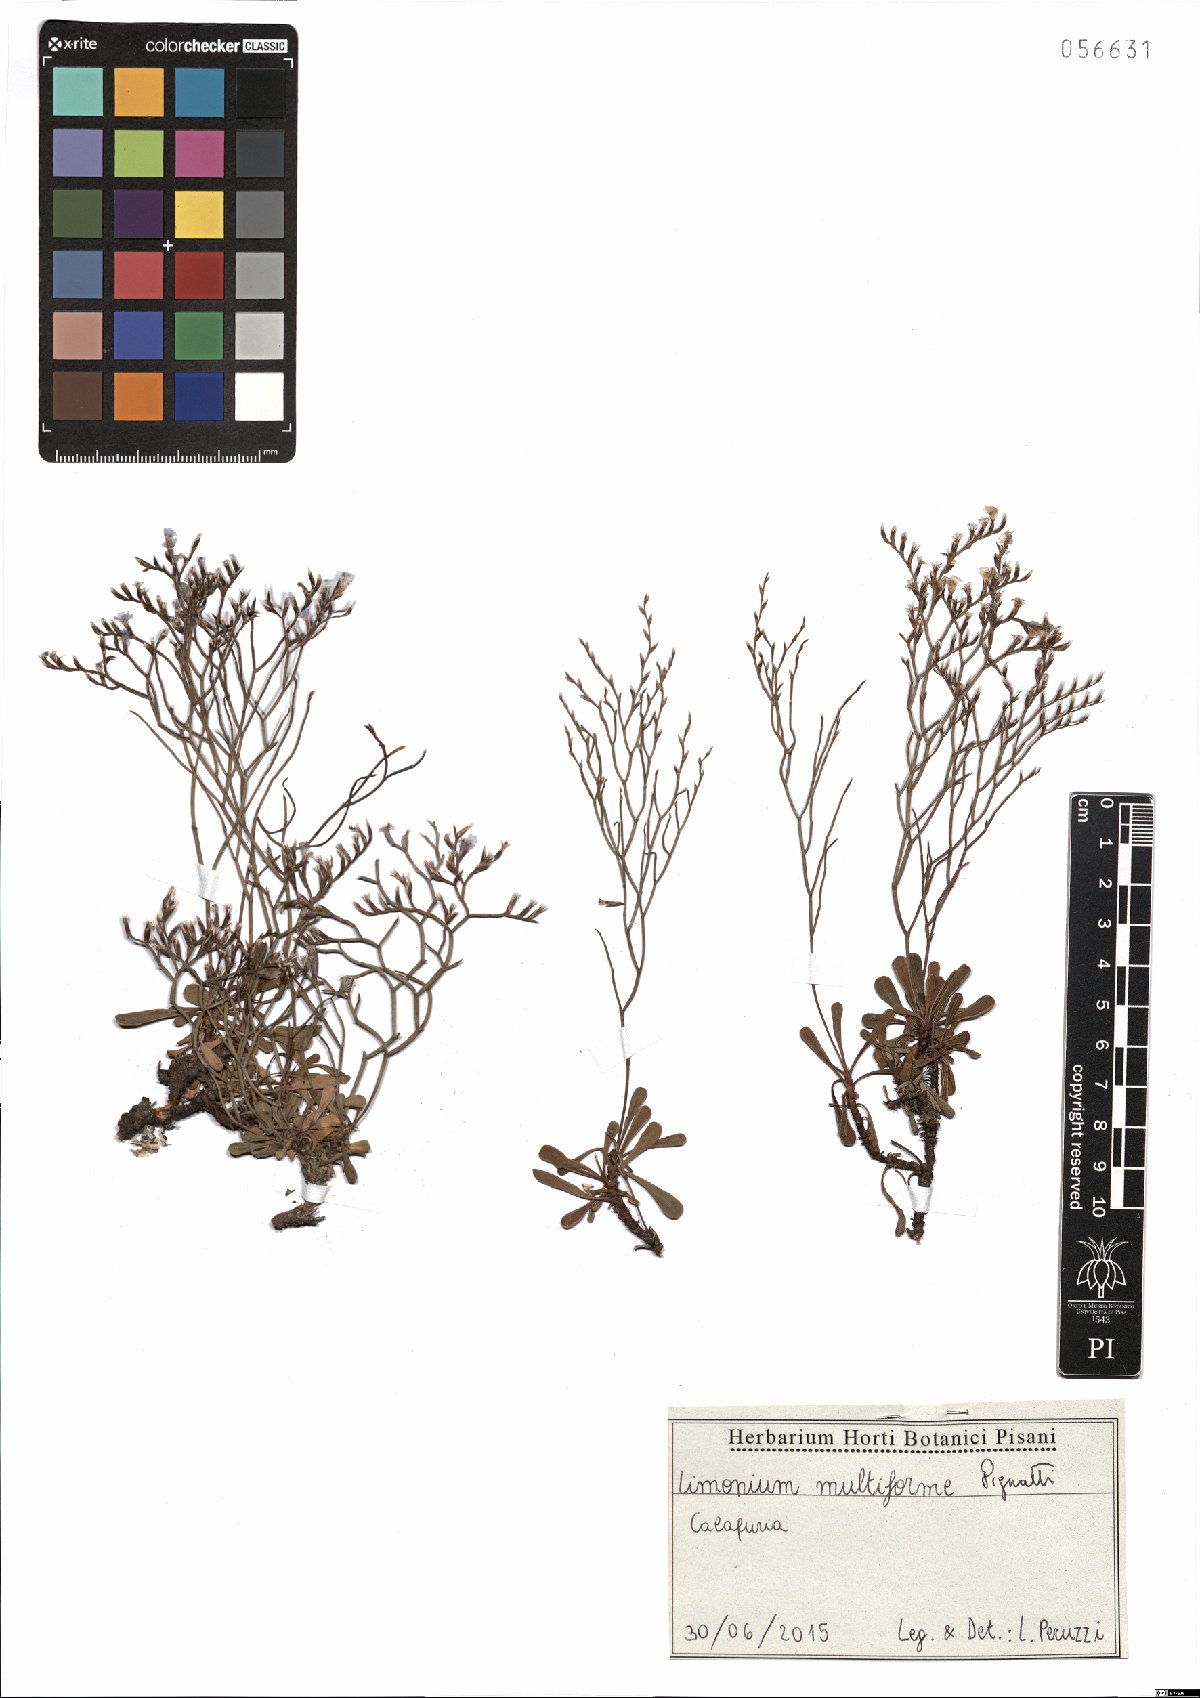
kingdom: Plantae
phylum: Tracheophyta
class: Magnoliopsida
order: Caryophyllales
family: Plumbaginaceae
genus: Limonium
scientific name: Limonium multiforme
